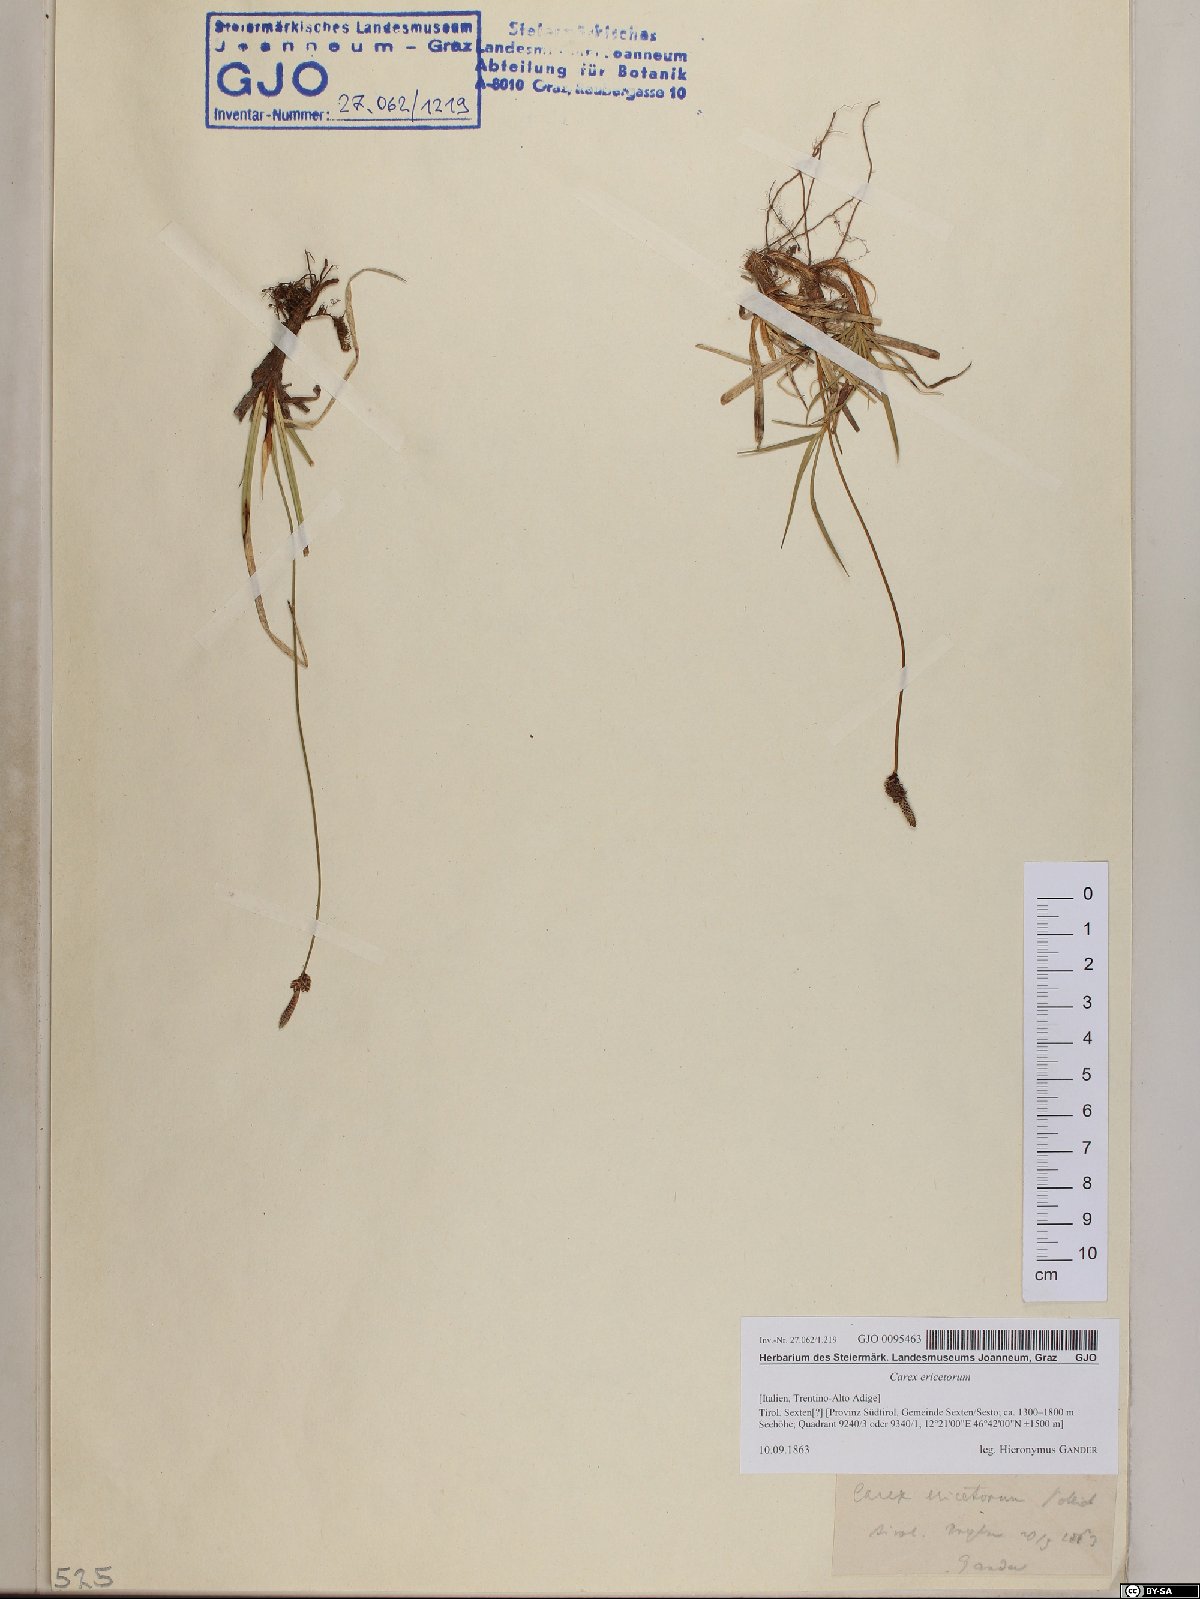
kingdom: Plantae
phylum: Tracheophyta
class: Liliopsida
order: Poales
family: Cyperaceae
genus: Carex
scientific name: Carex ericetorum
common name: Rare spring-sedge
